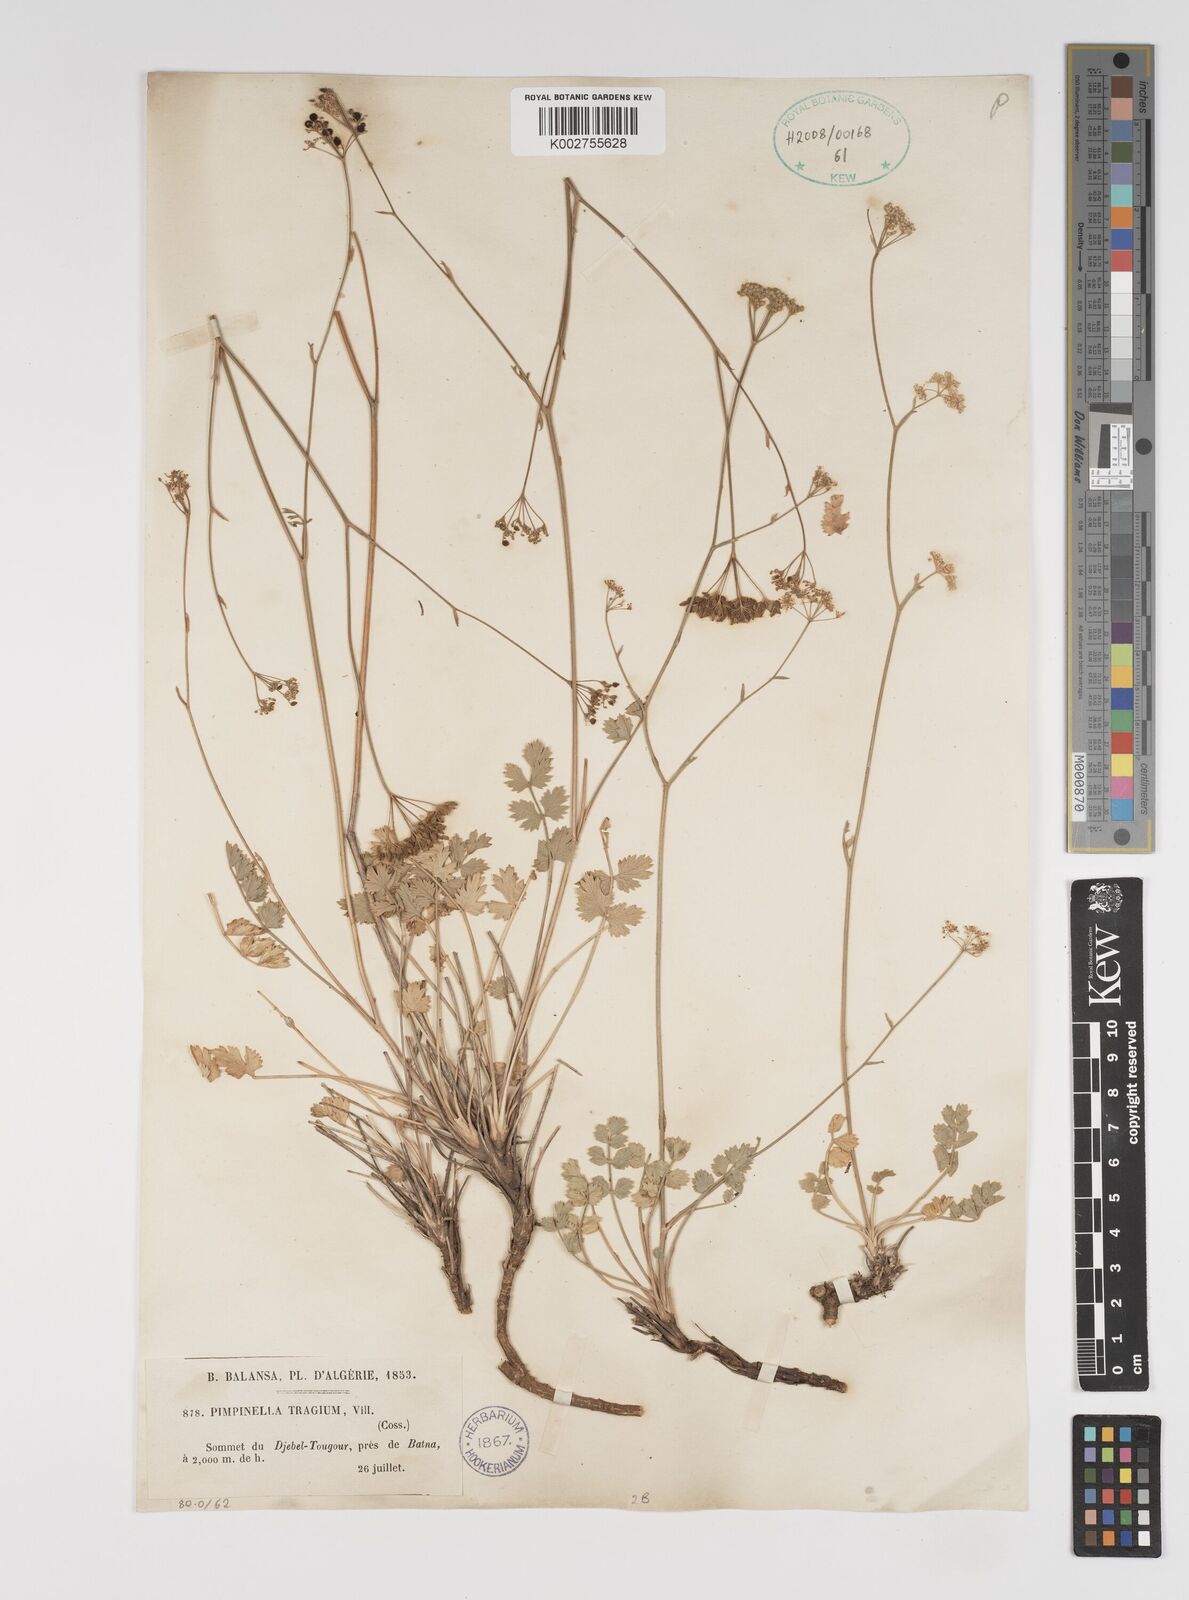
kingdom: Plantae
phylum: Tracheophyta
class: Magnoliopsida
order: Apiales
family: Apiaceae
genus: Pimpinella
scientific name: Pimpinella tragium
